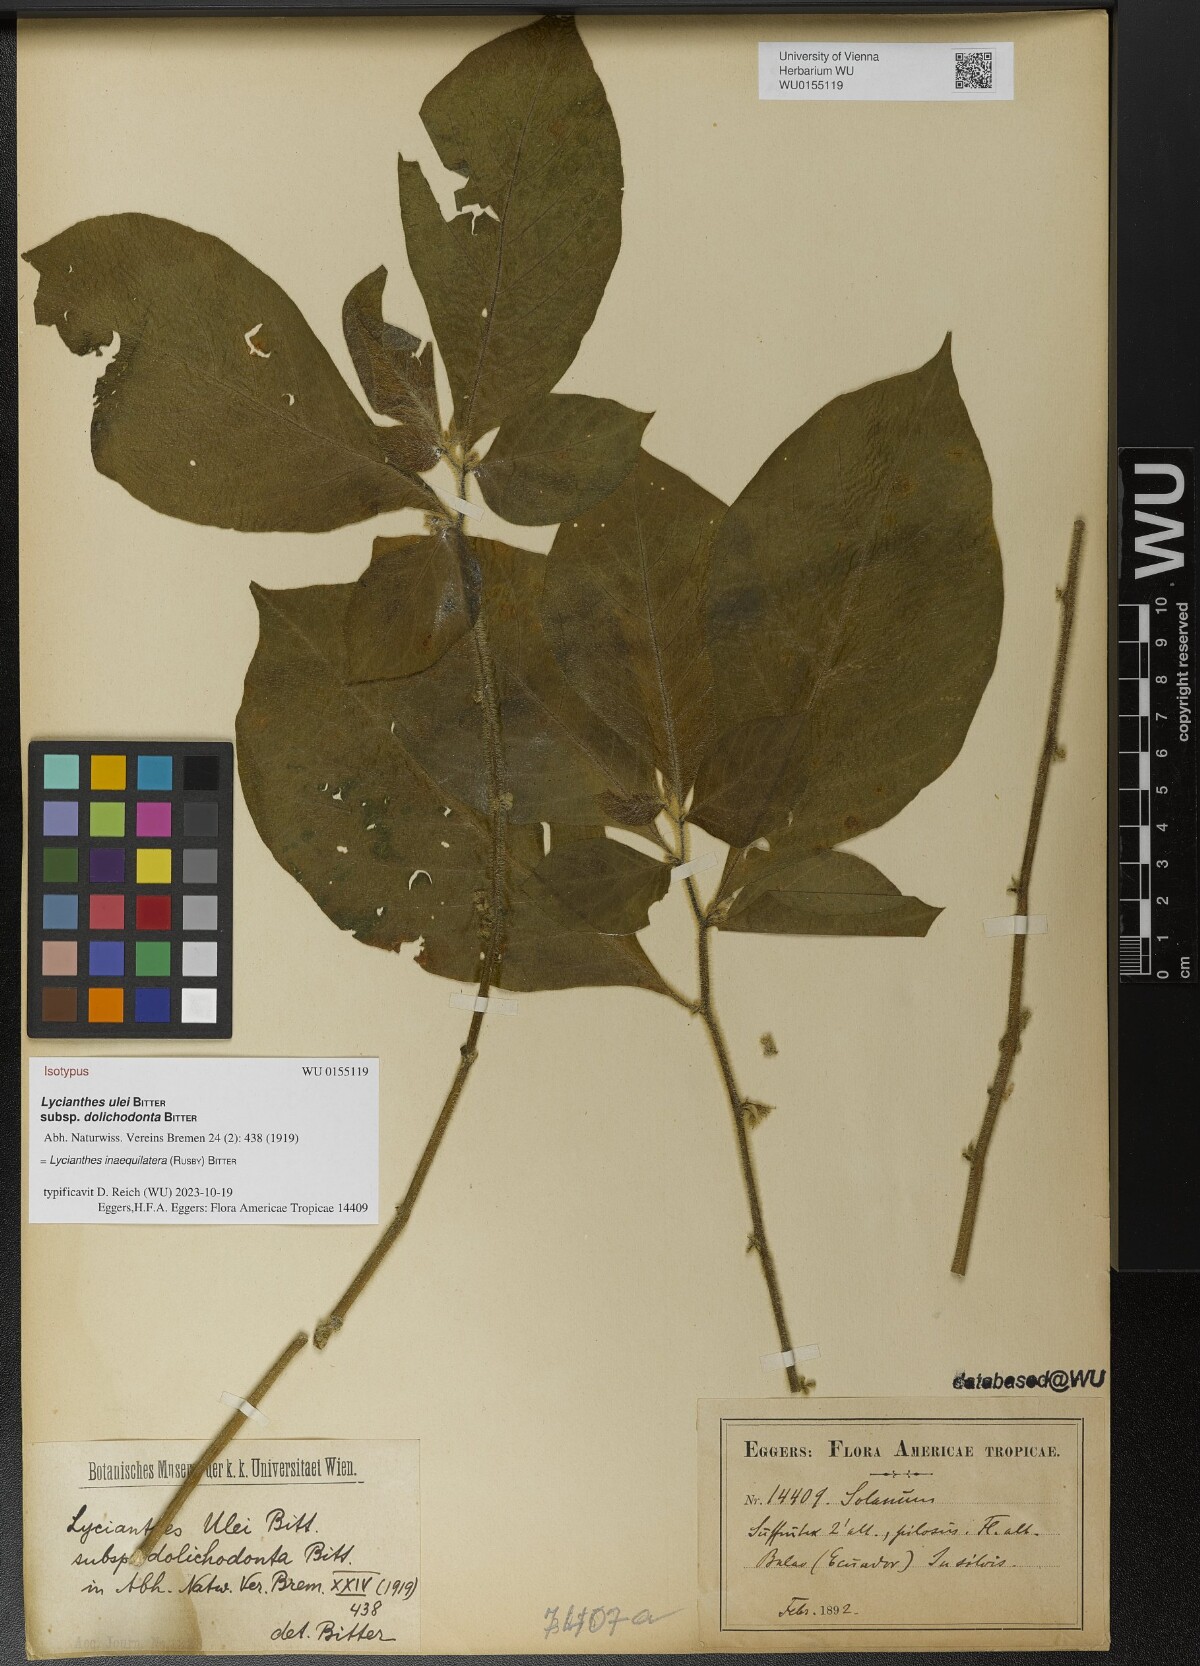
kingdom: Plantae
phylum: Tracheophyta
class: Magnoliopsida
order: Solanales
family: Solanaceae
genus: Lycianthes
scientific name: Lycianthes inaequilatera
